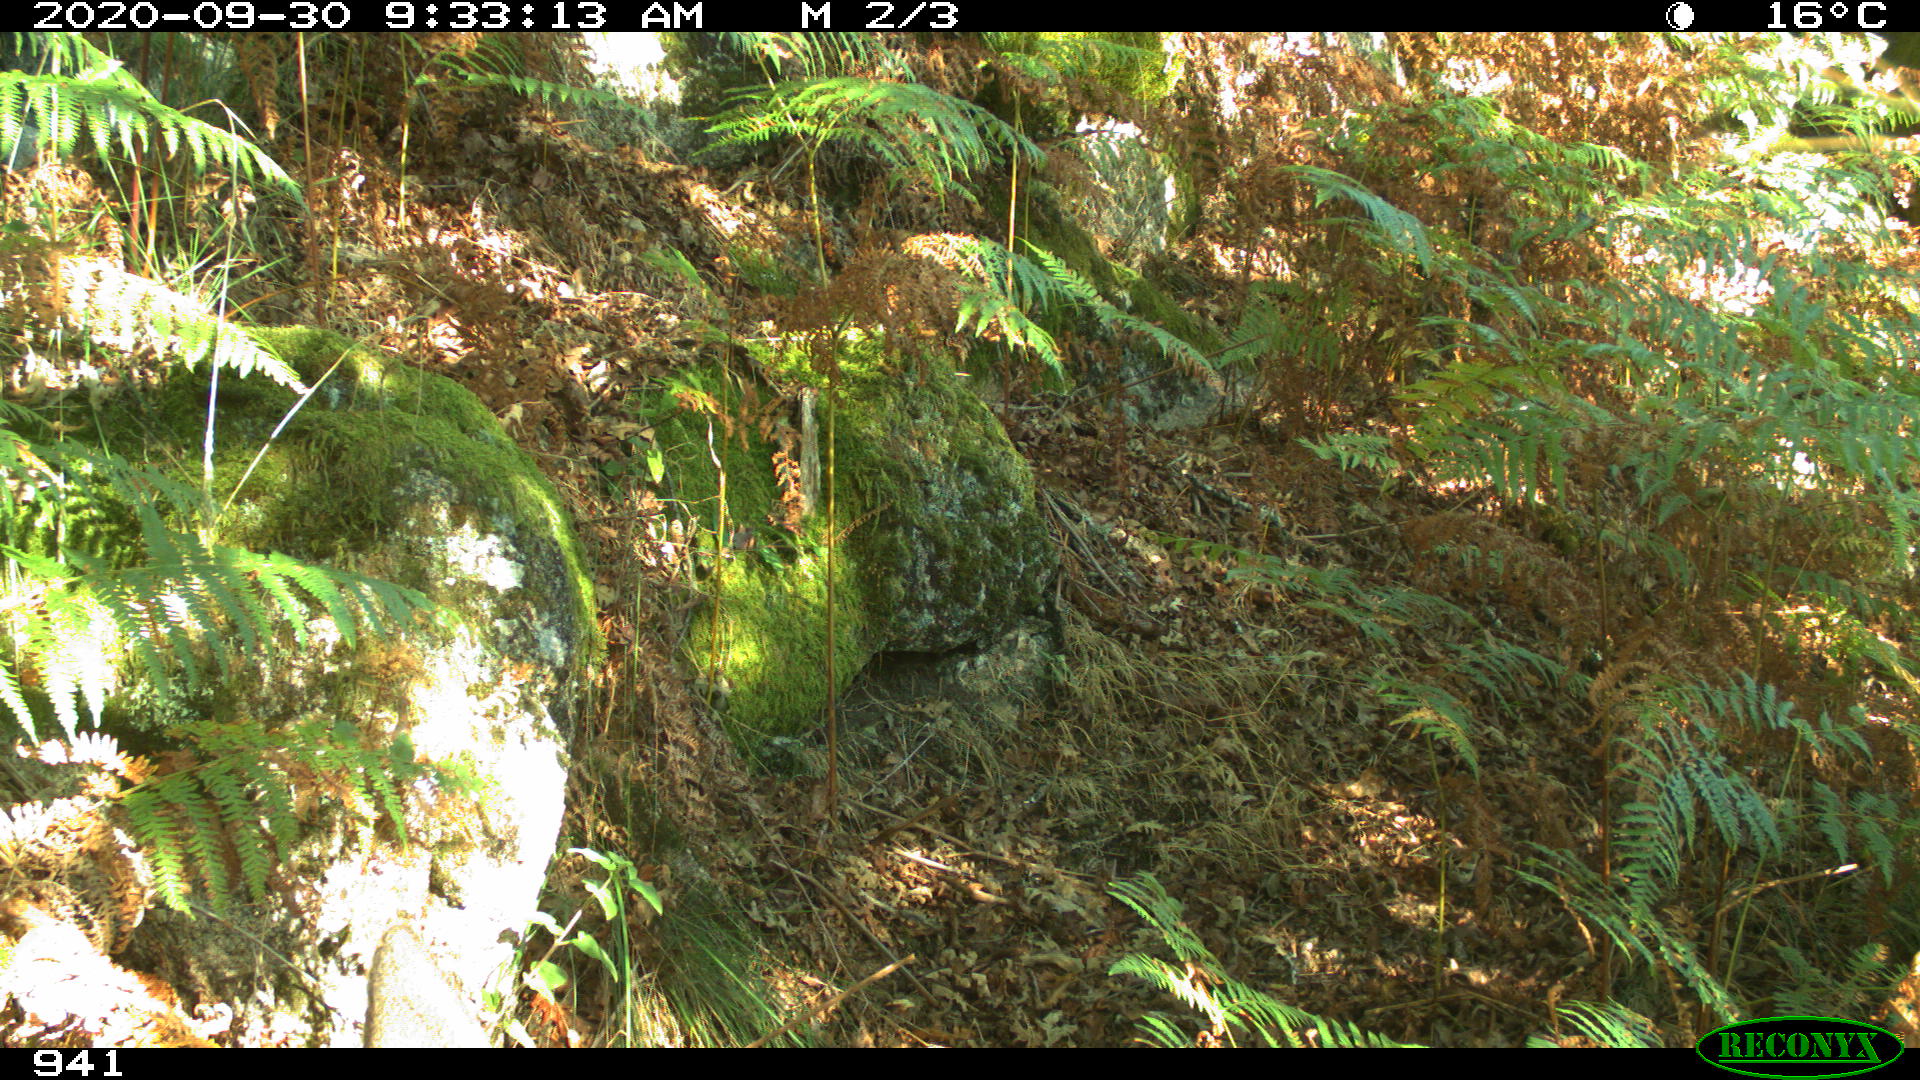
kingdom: Animalia
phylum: Chordata
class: Mammalia
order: Artiodactyla
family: Cervidae
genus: Capreolus
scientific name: Capreolus capreolus
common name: Western roe deer
